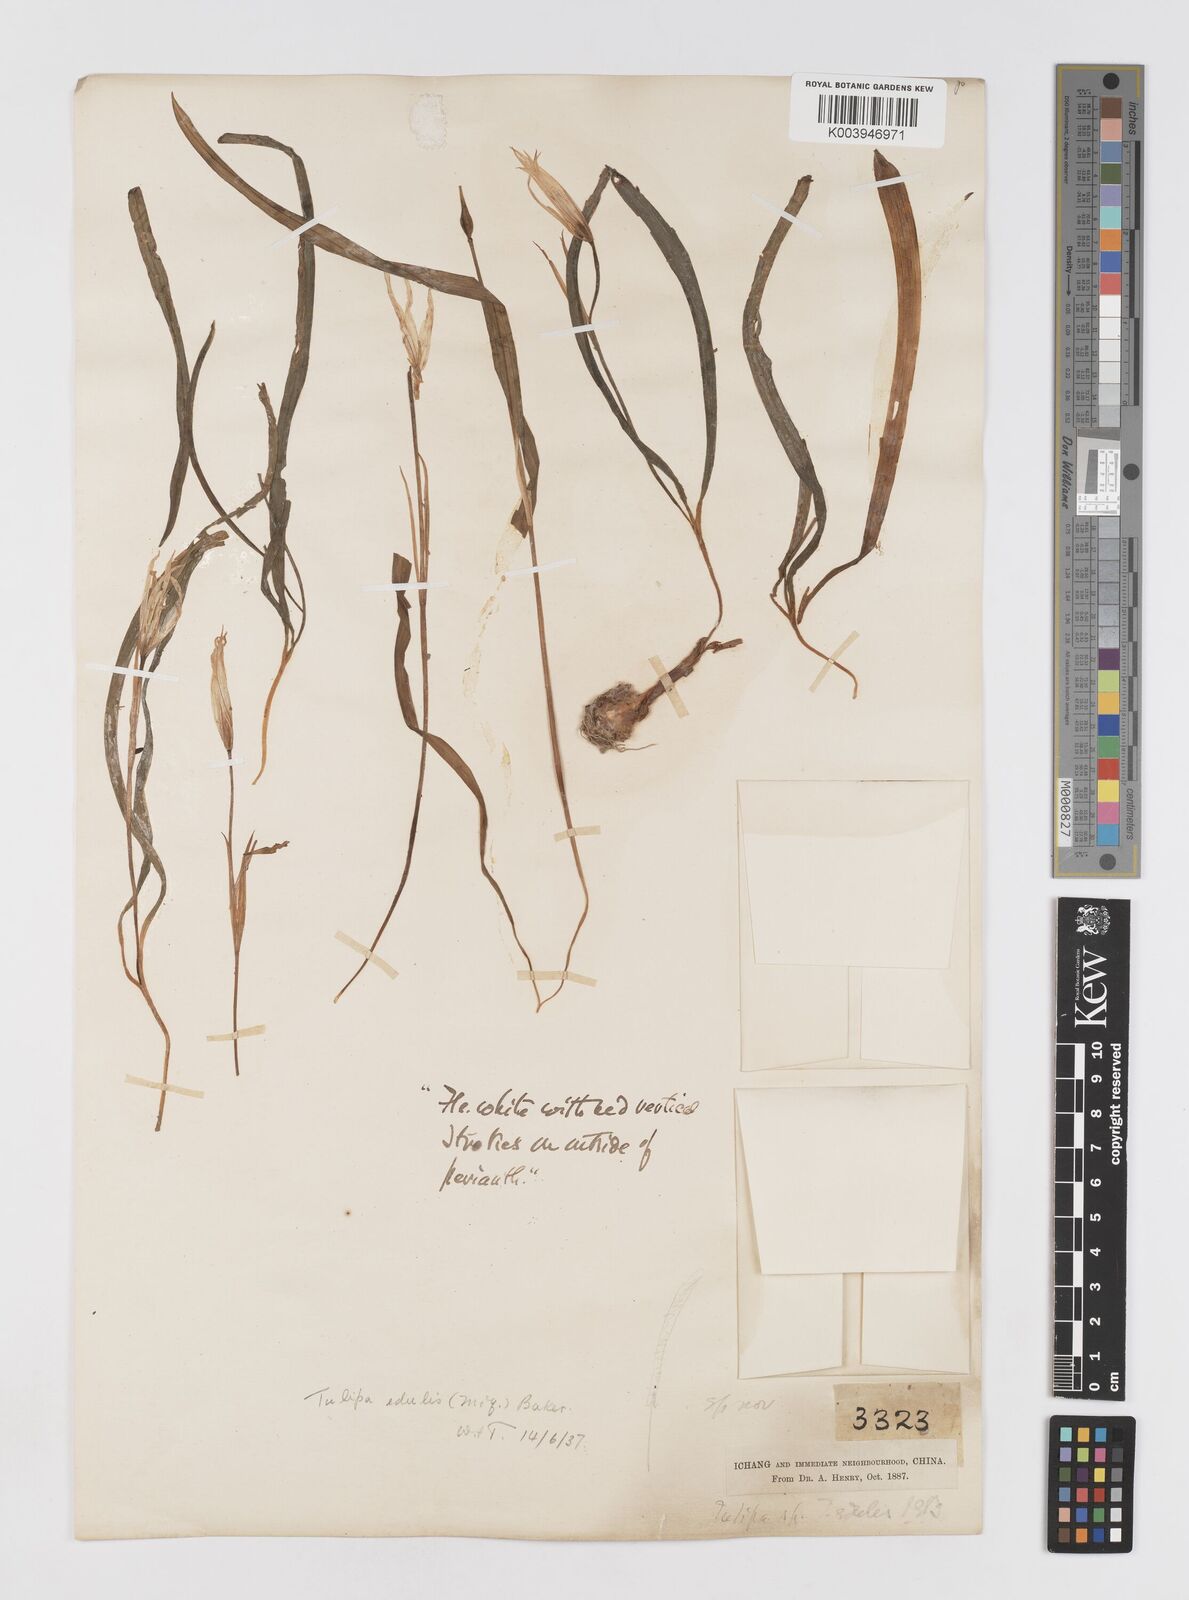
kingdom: Plantae
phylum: Tracheophyta
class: Liliopsida
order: Liliales
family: Liliaceae
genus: Amana
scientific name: Amana edulis
